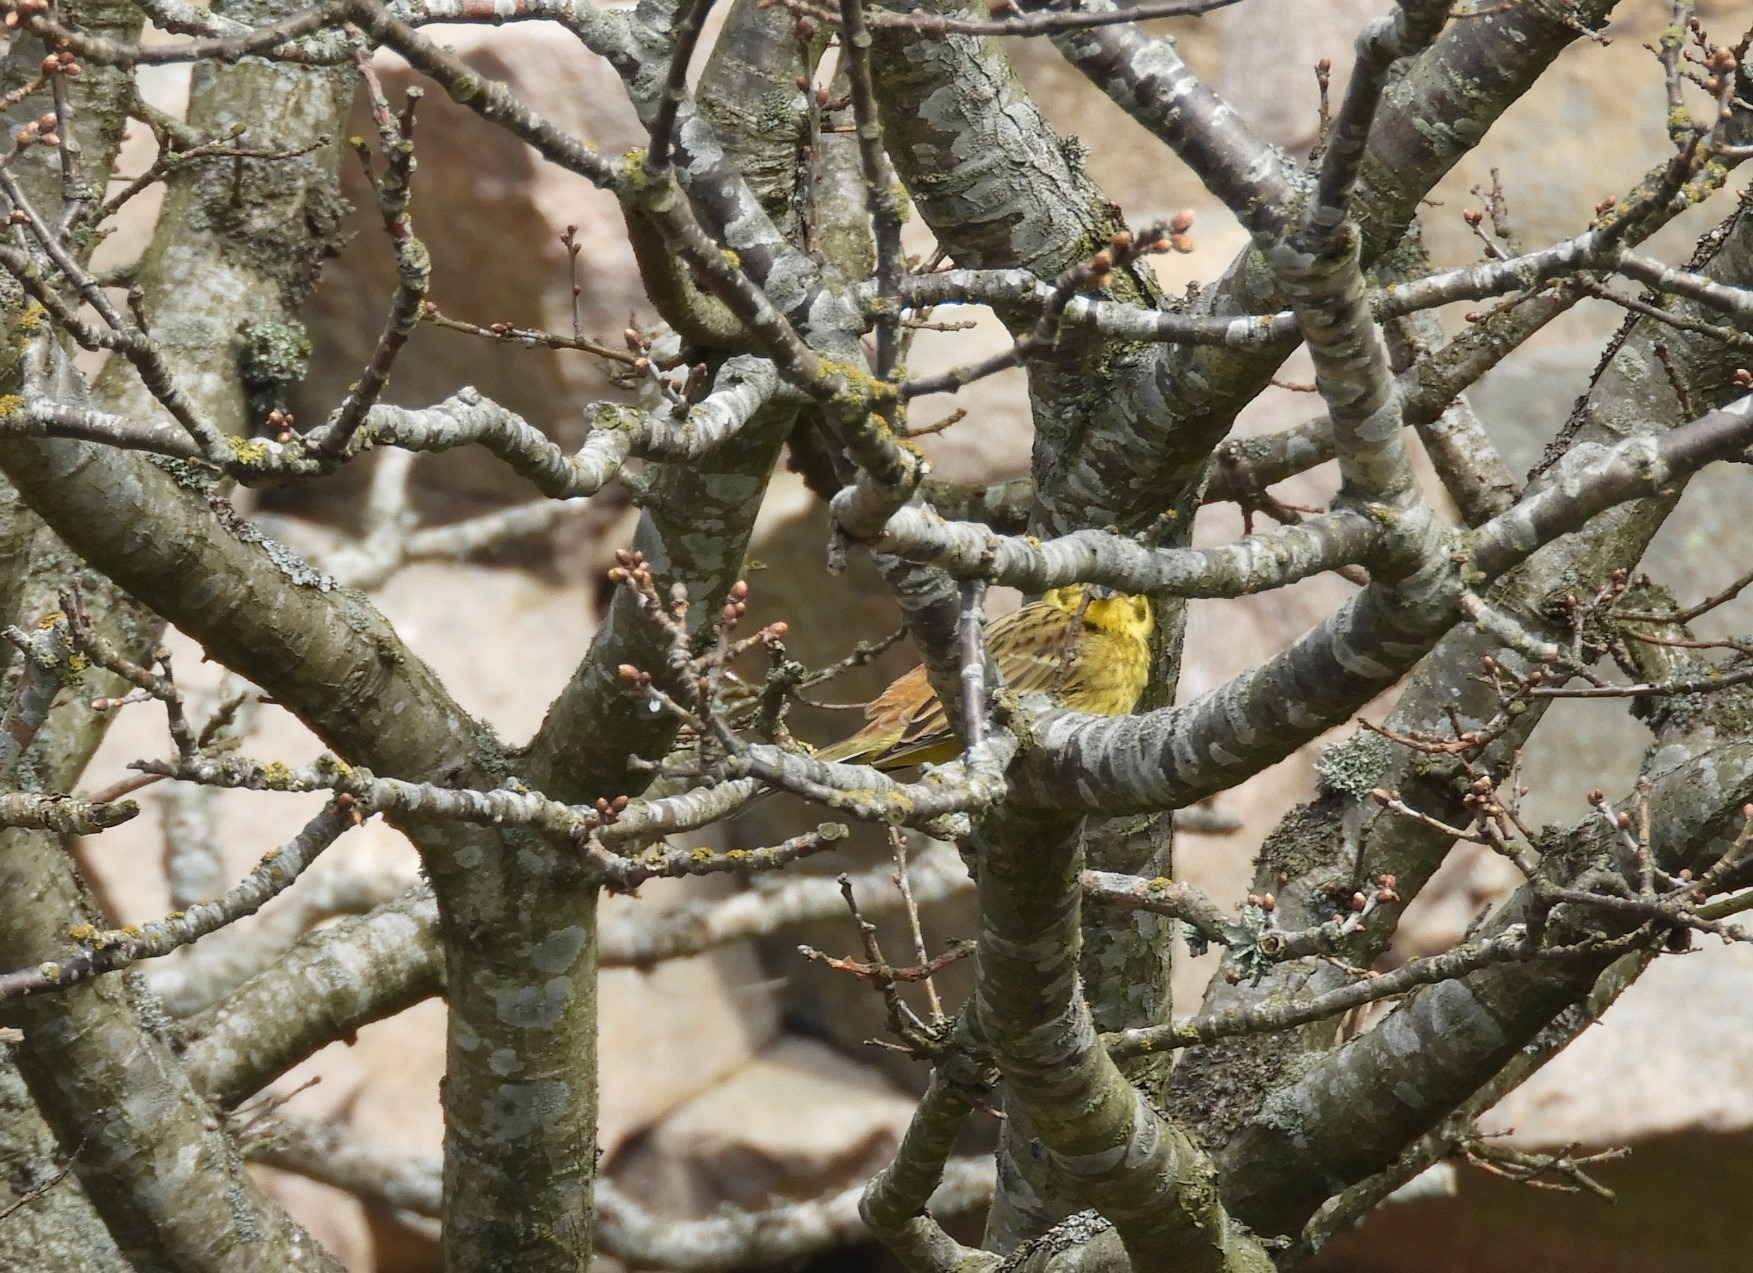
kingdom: Animalia
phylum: Chordata
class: Aves
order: Passeriformes
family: Emberizidae
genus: Emberiza
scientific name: Emberiza citrinella
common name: Gulspurv
